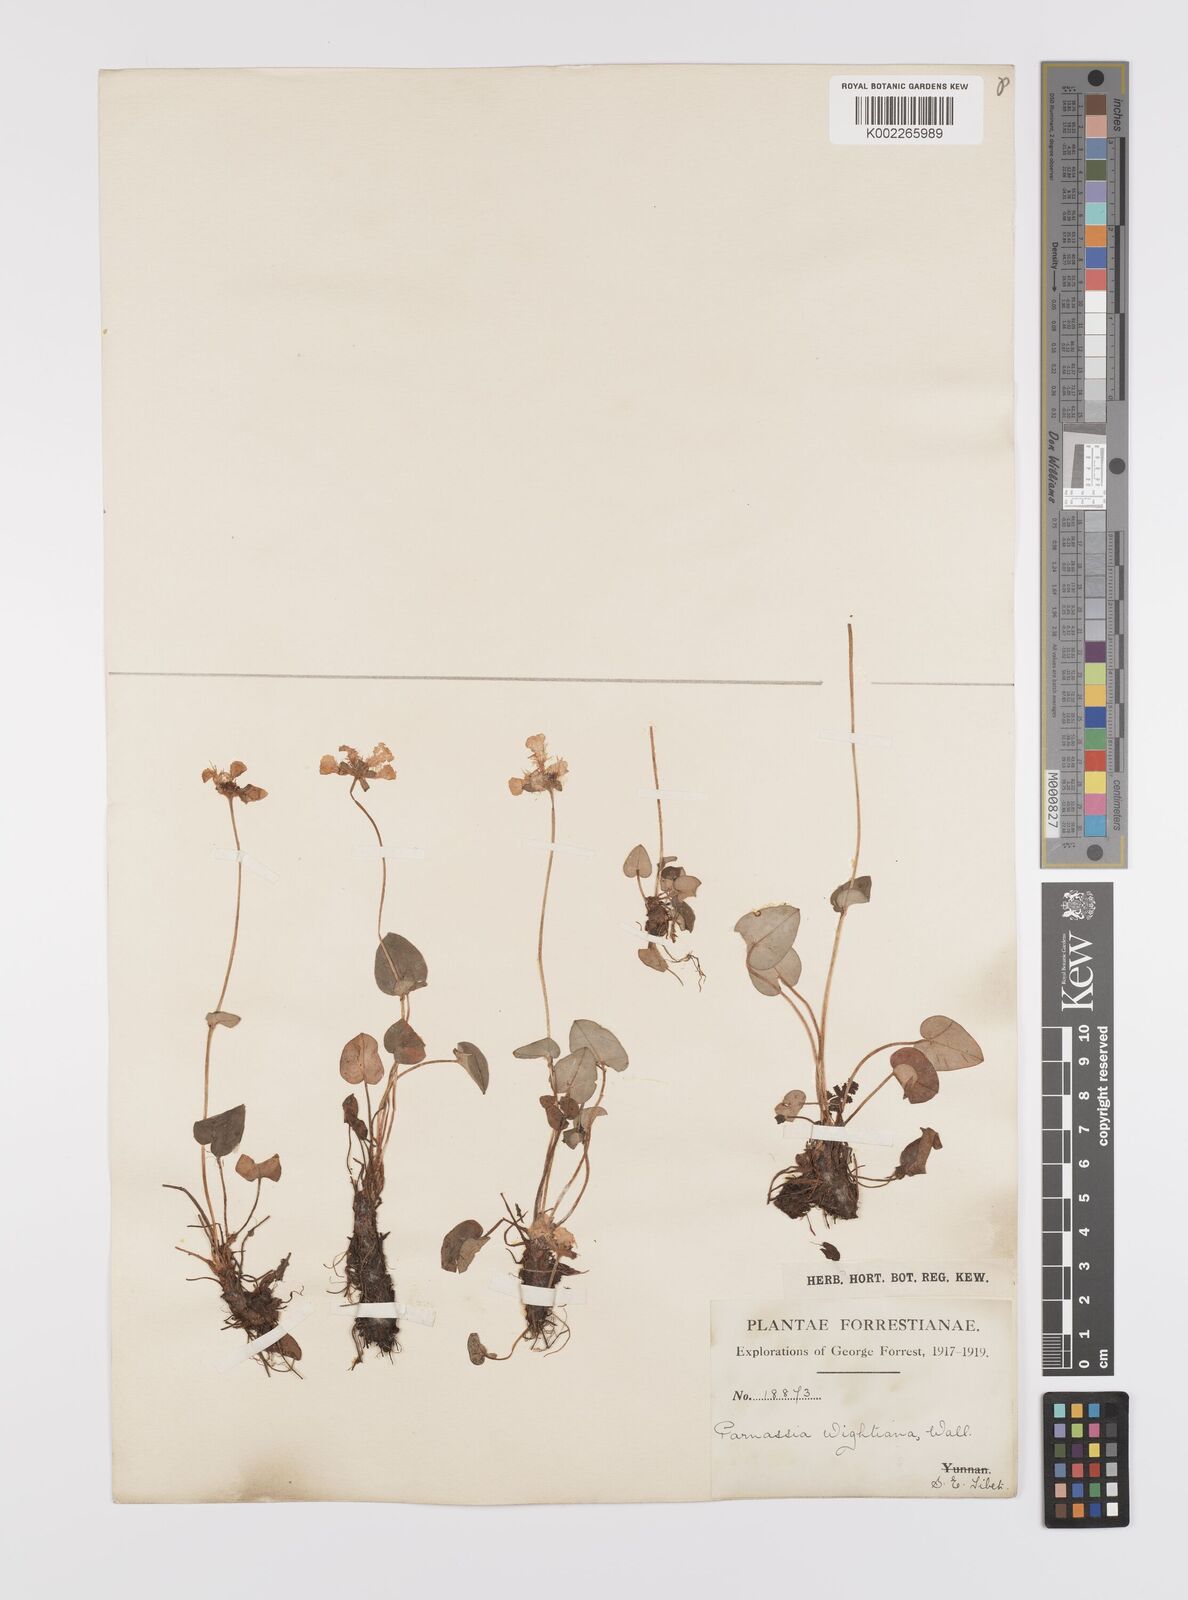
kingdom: Plantae
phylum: Tracheophyta
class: Magnoliopsida
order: Celastrales
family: Parnassiaceae
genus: Parnassia
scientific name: Parnassia wightiana
